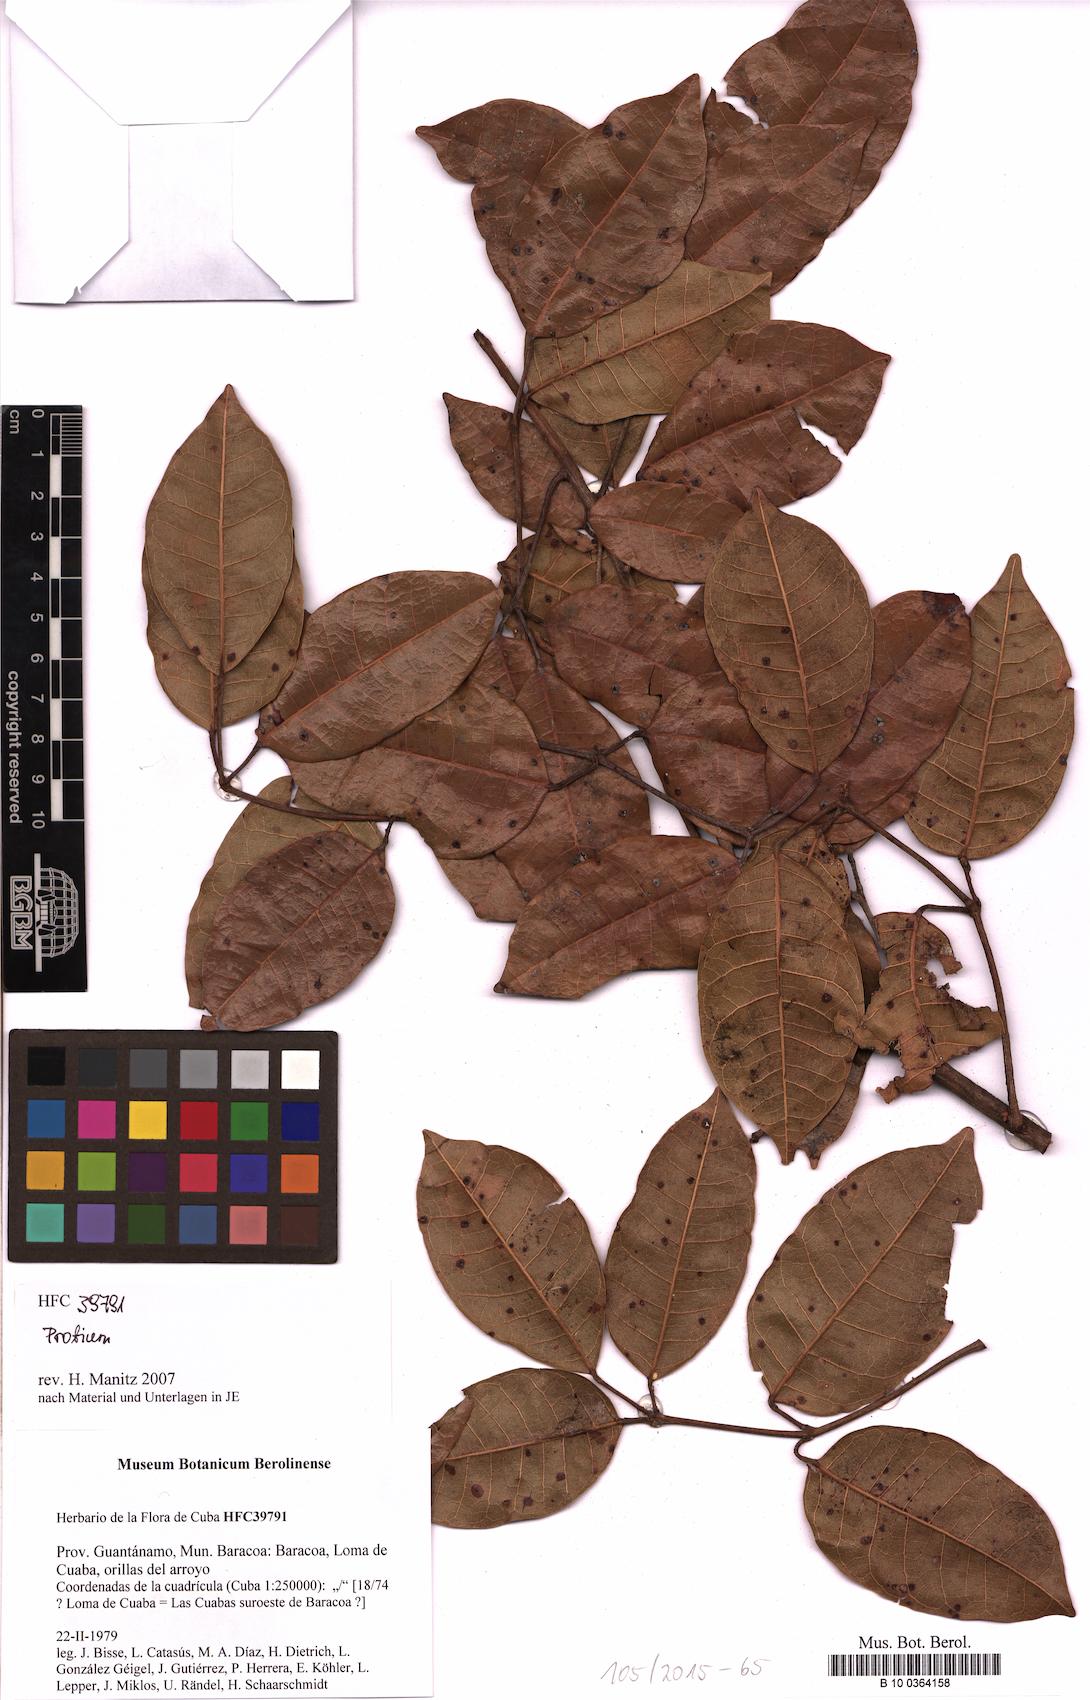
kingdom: Plantae
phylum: Tracheophyta
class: Magnoliopsida
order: Sapindales
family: Burseraceae
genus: Protium
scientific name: Protium
